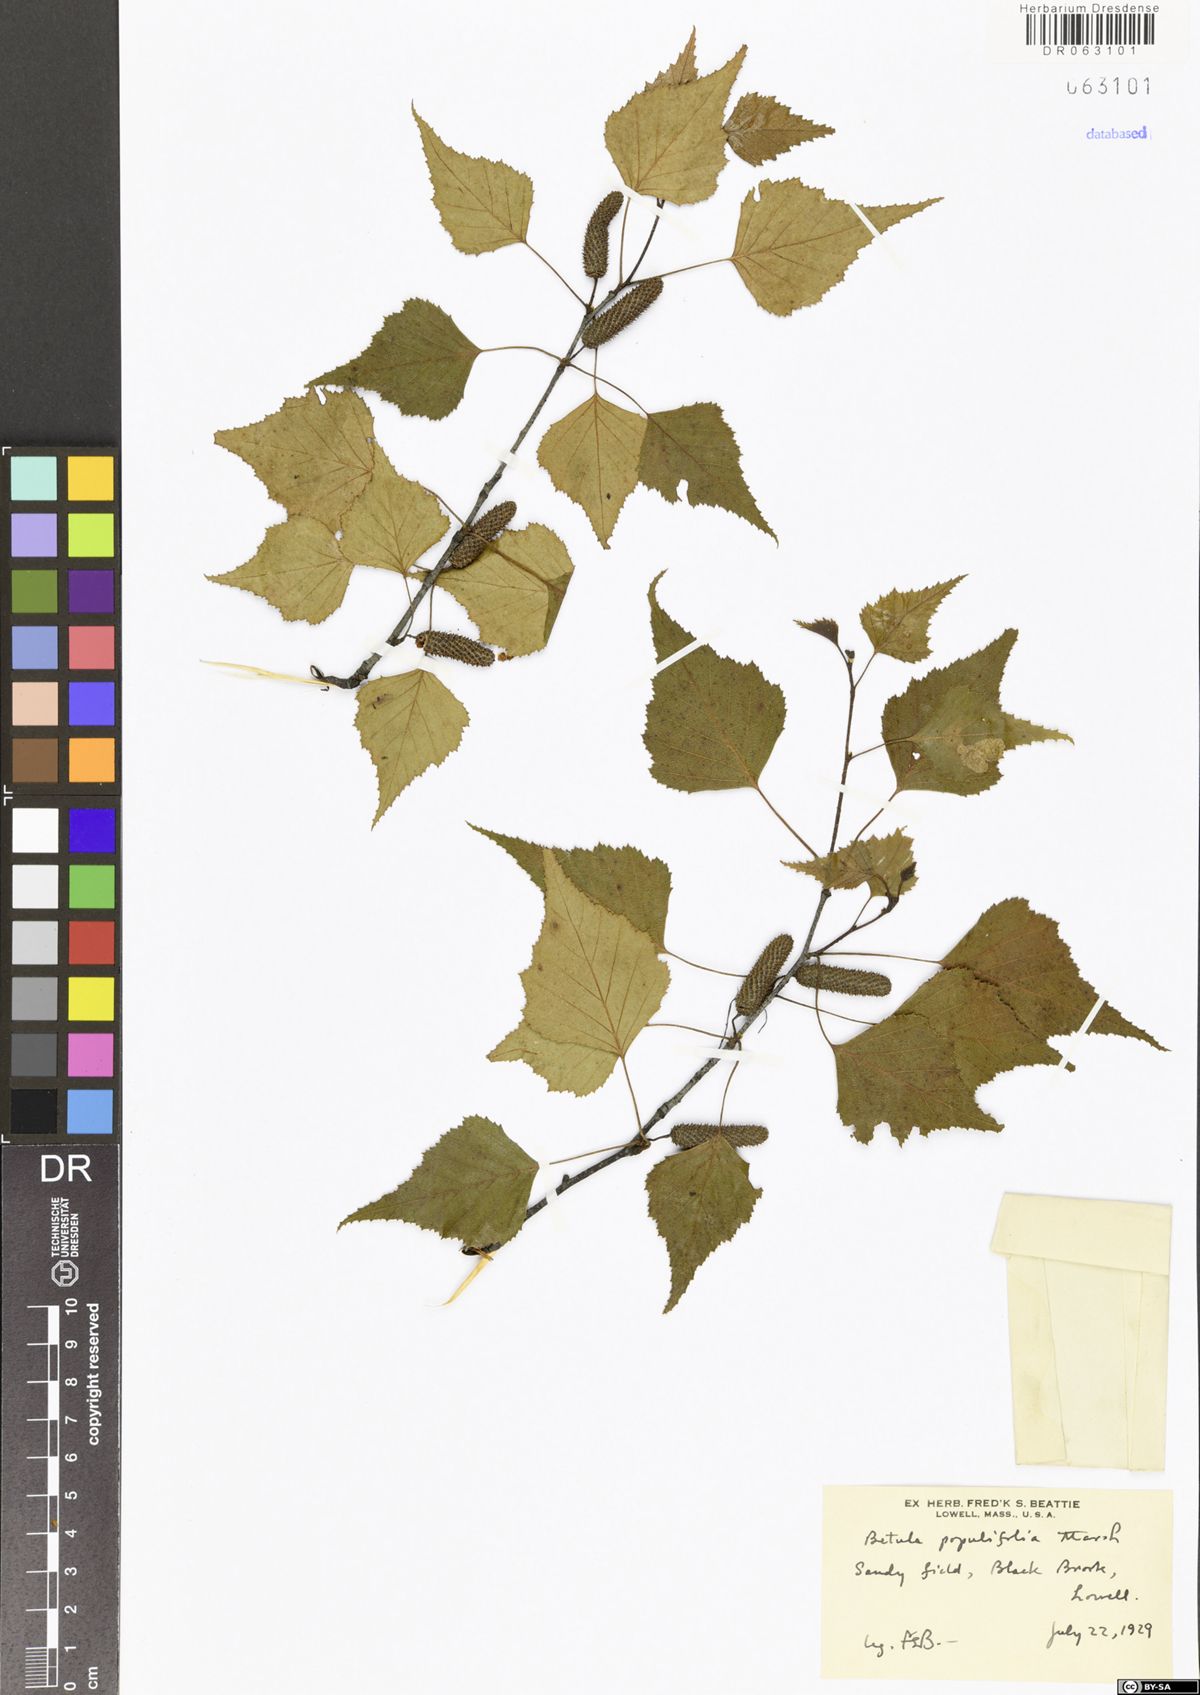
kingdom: Plantae
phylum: Tracheophyta
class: Magnoliopsida
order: Fagales
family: Betulaceae
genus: Betula
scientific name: Betula populifolia
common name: Fire birch
